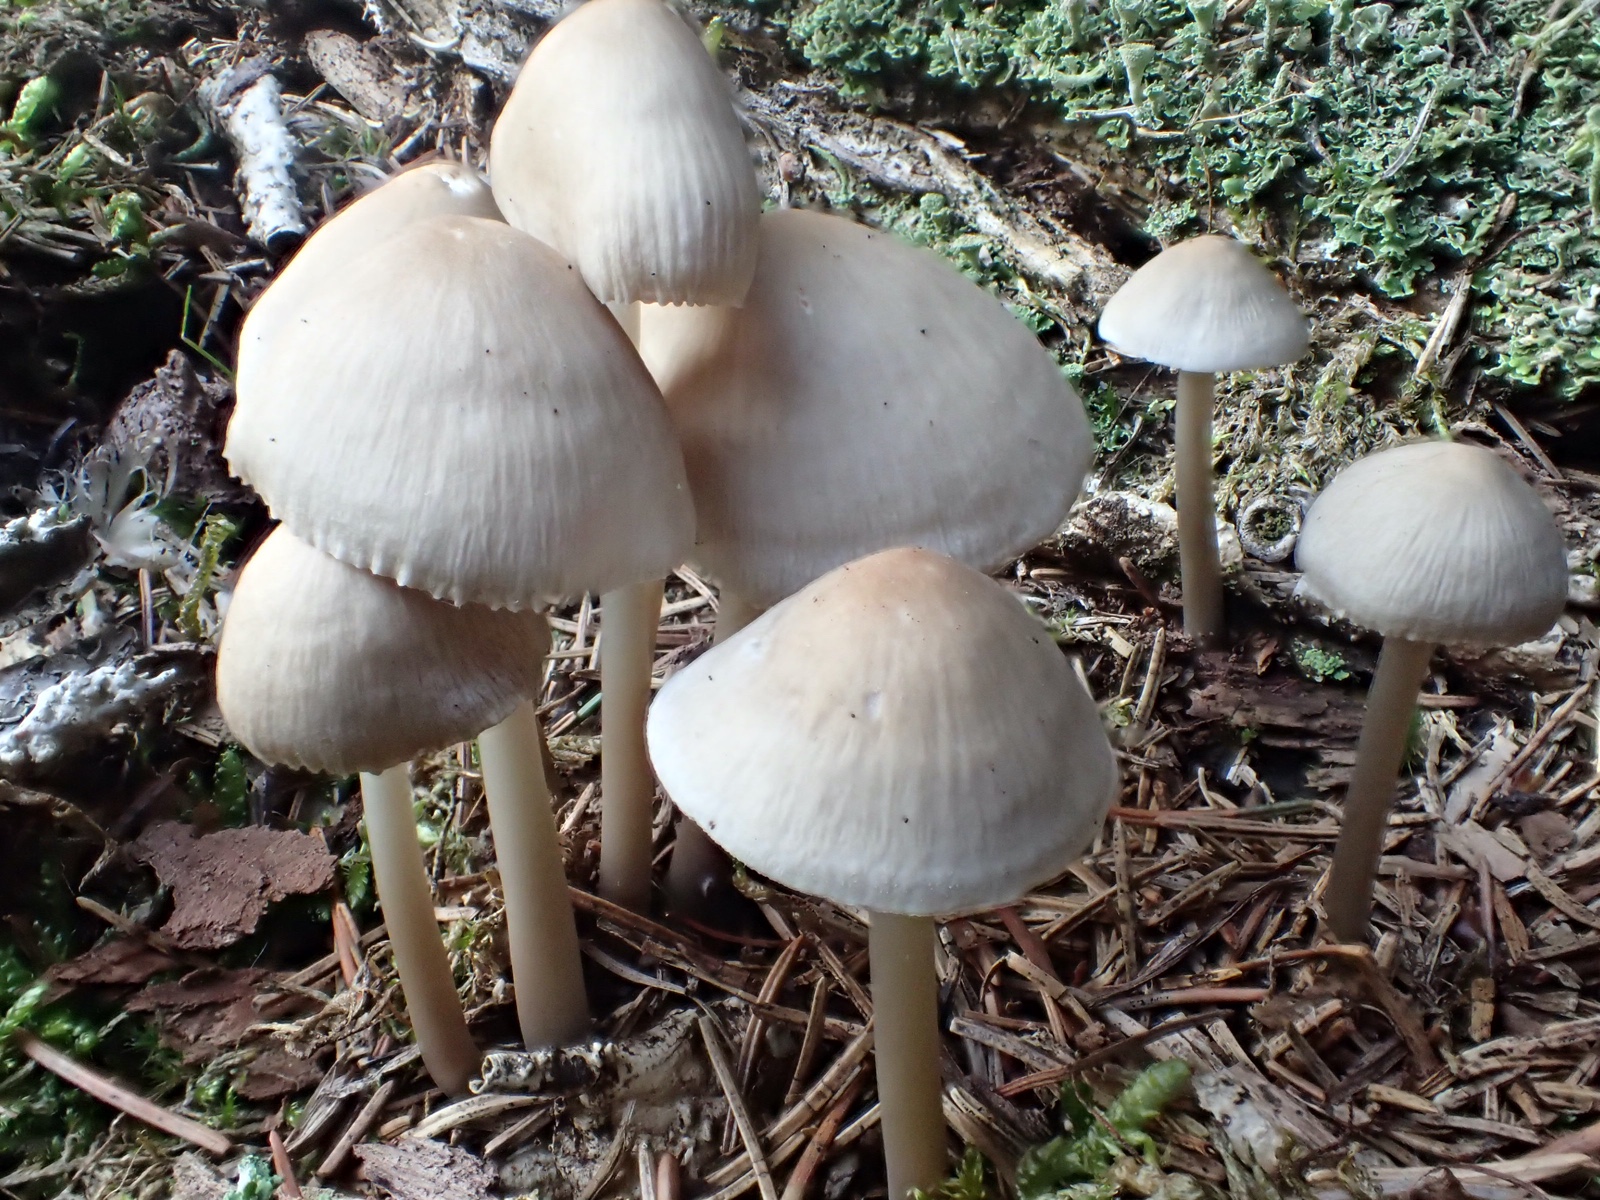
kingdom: Fungi
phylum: Basidiomycota
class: Agaricomycetes
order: Agaricales
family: Mycenaceae
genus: Mycena
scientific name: Mycena galericulata
